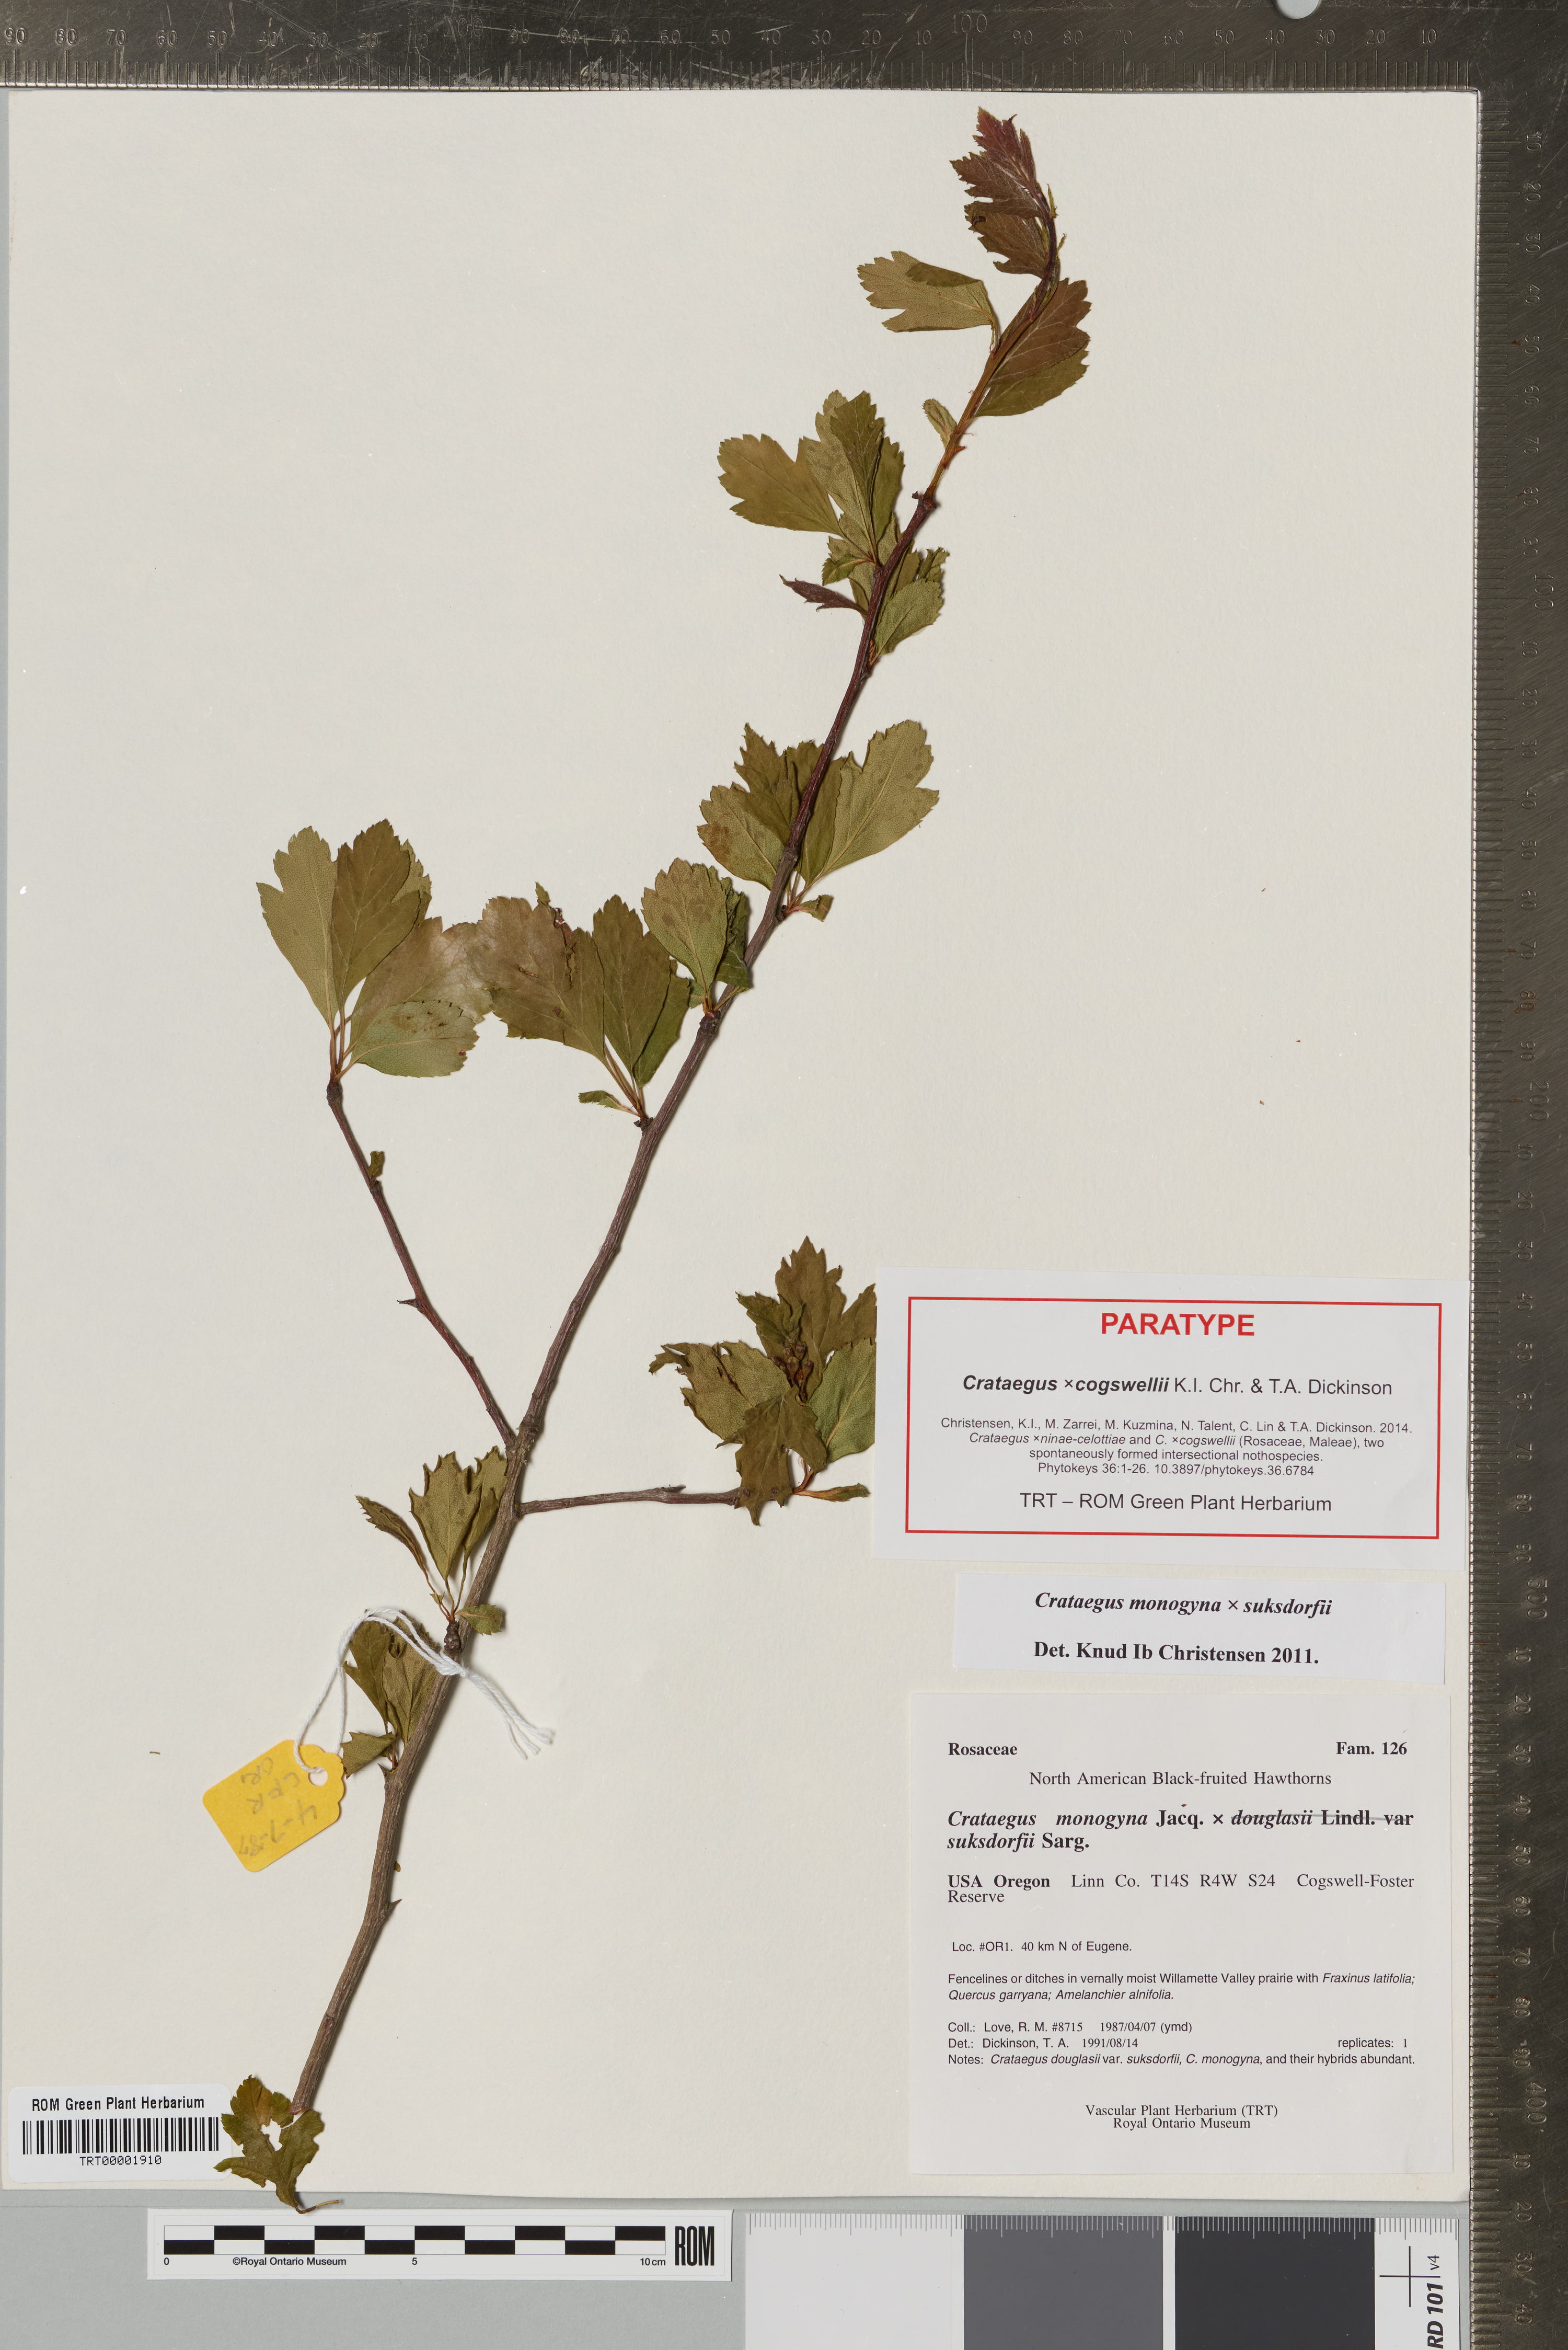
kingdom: Plantae
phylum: Tracheophyta
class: Magnoliopsida
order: Rosales
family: Rosaceae
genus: Crataegus
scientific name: Crataegus
